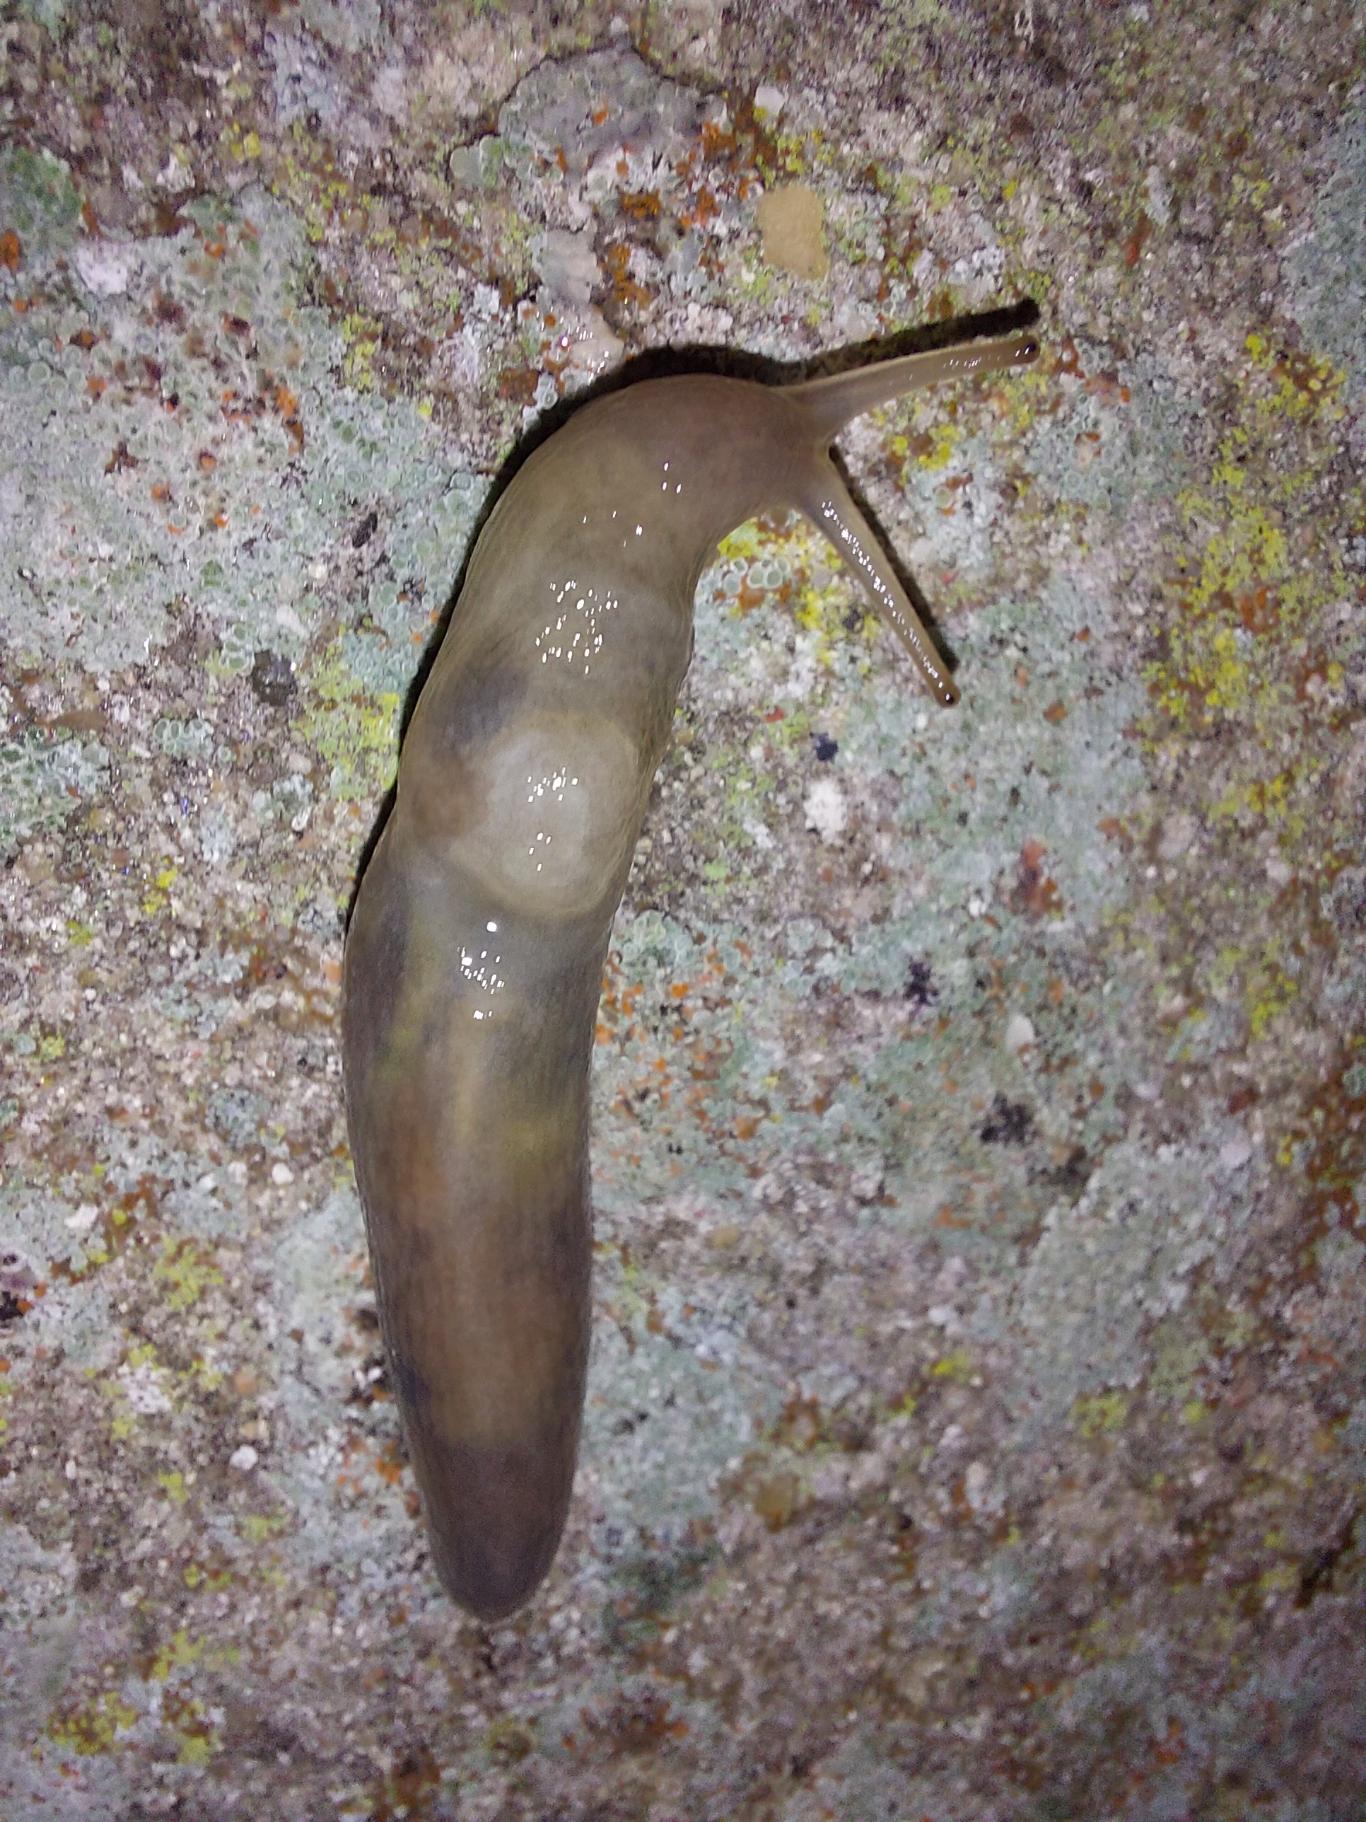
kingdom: Animalia
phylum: Mollusca
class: Gastropoda
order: Stylommatophora
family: Limacidae
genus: Lehmannia
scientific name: Lehmannia marginata
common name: Bøgesnegl
